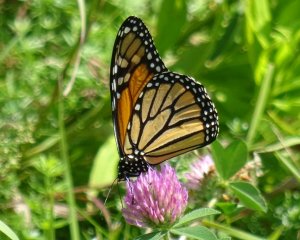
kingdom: Animalia
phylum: Arthropoda
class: Insecta
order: Lepidoptera
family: Nymphalidae
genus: Danaus
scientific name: Danaus plexippus
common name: Monarch
